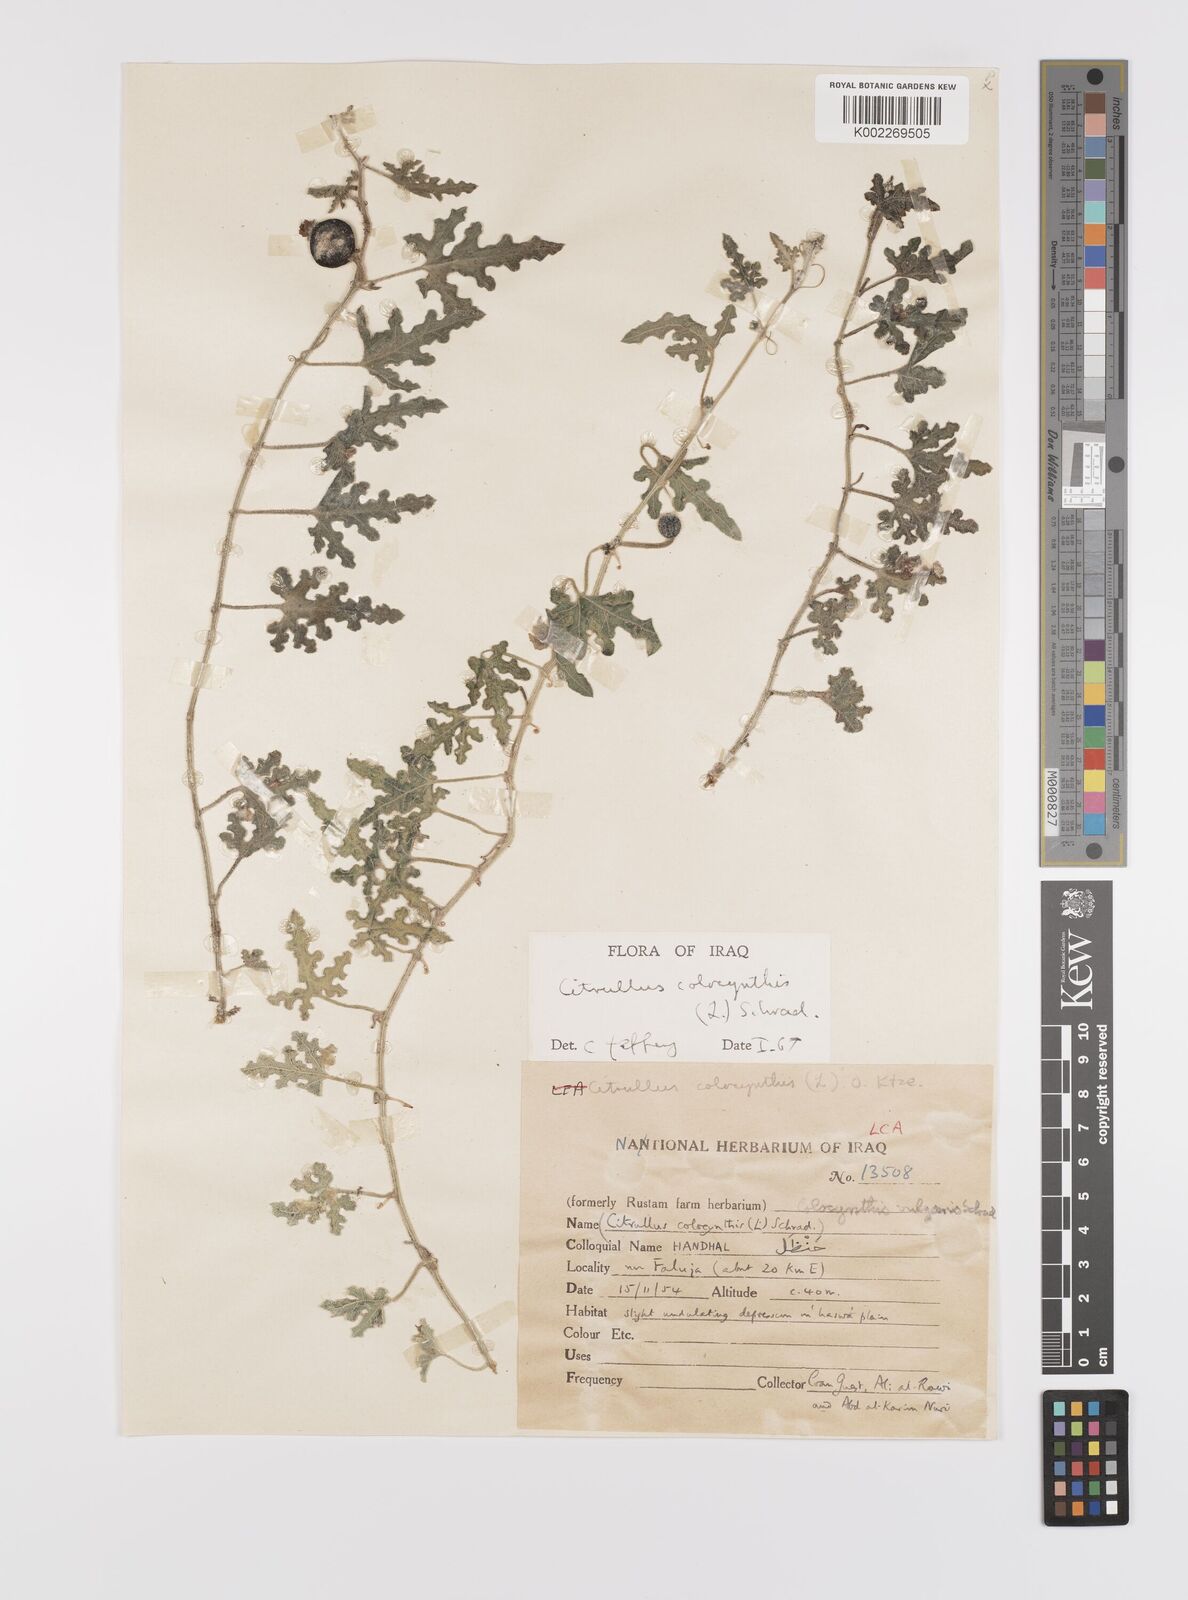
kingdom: Plantae
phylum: Tracheophyta
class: Magnoliopsida
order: Cucurbitales
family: Cucurbitaceae
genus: Citrullus
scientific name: Citrullus colocynthis
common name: Colocynth
